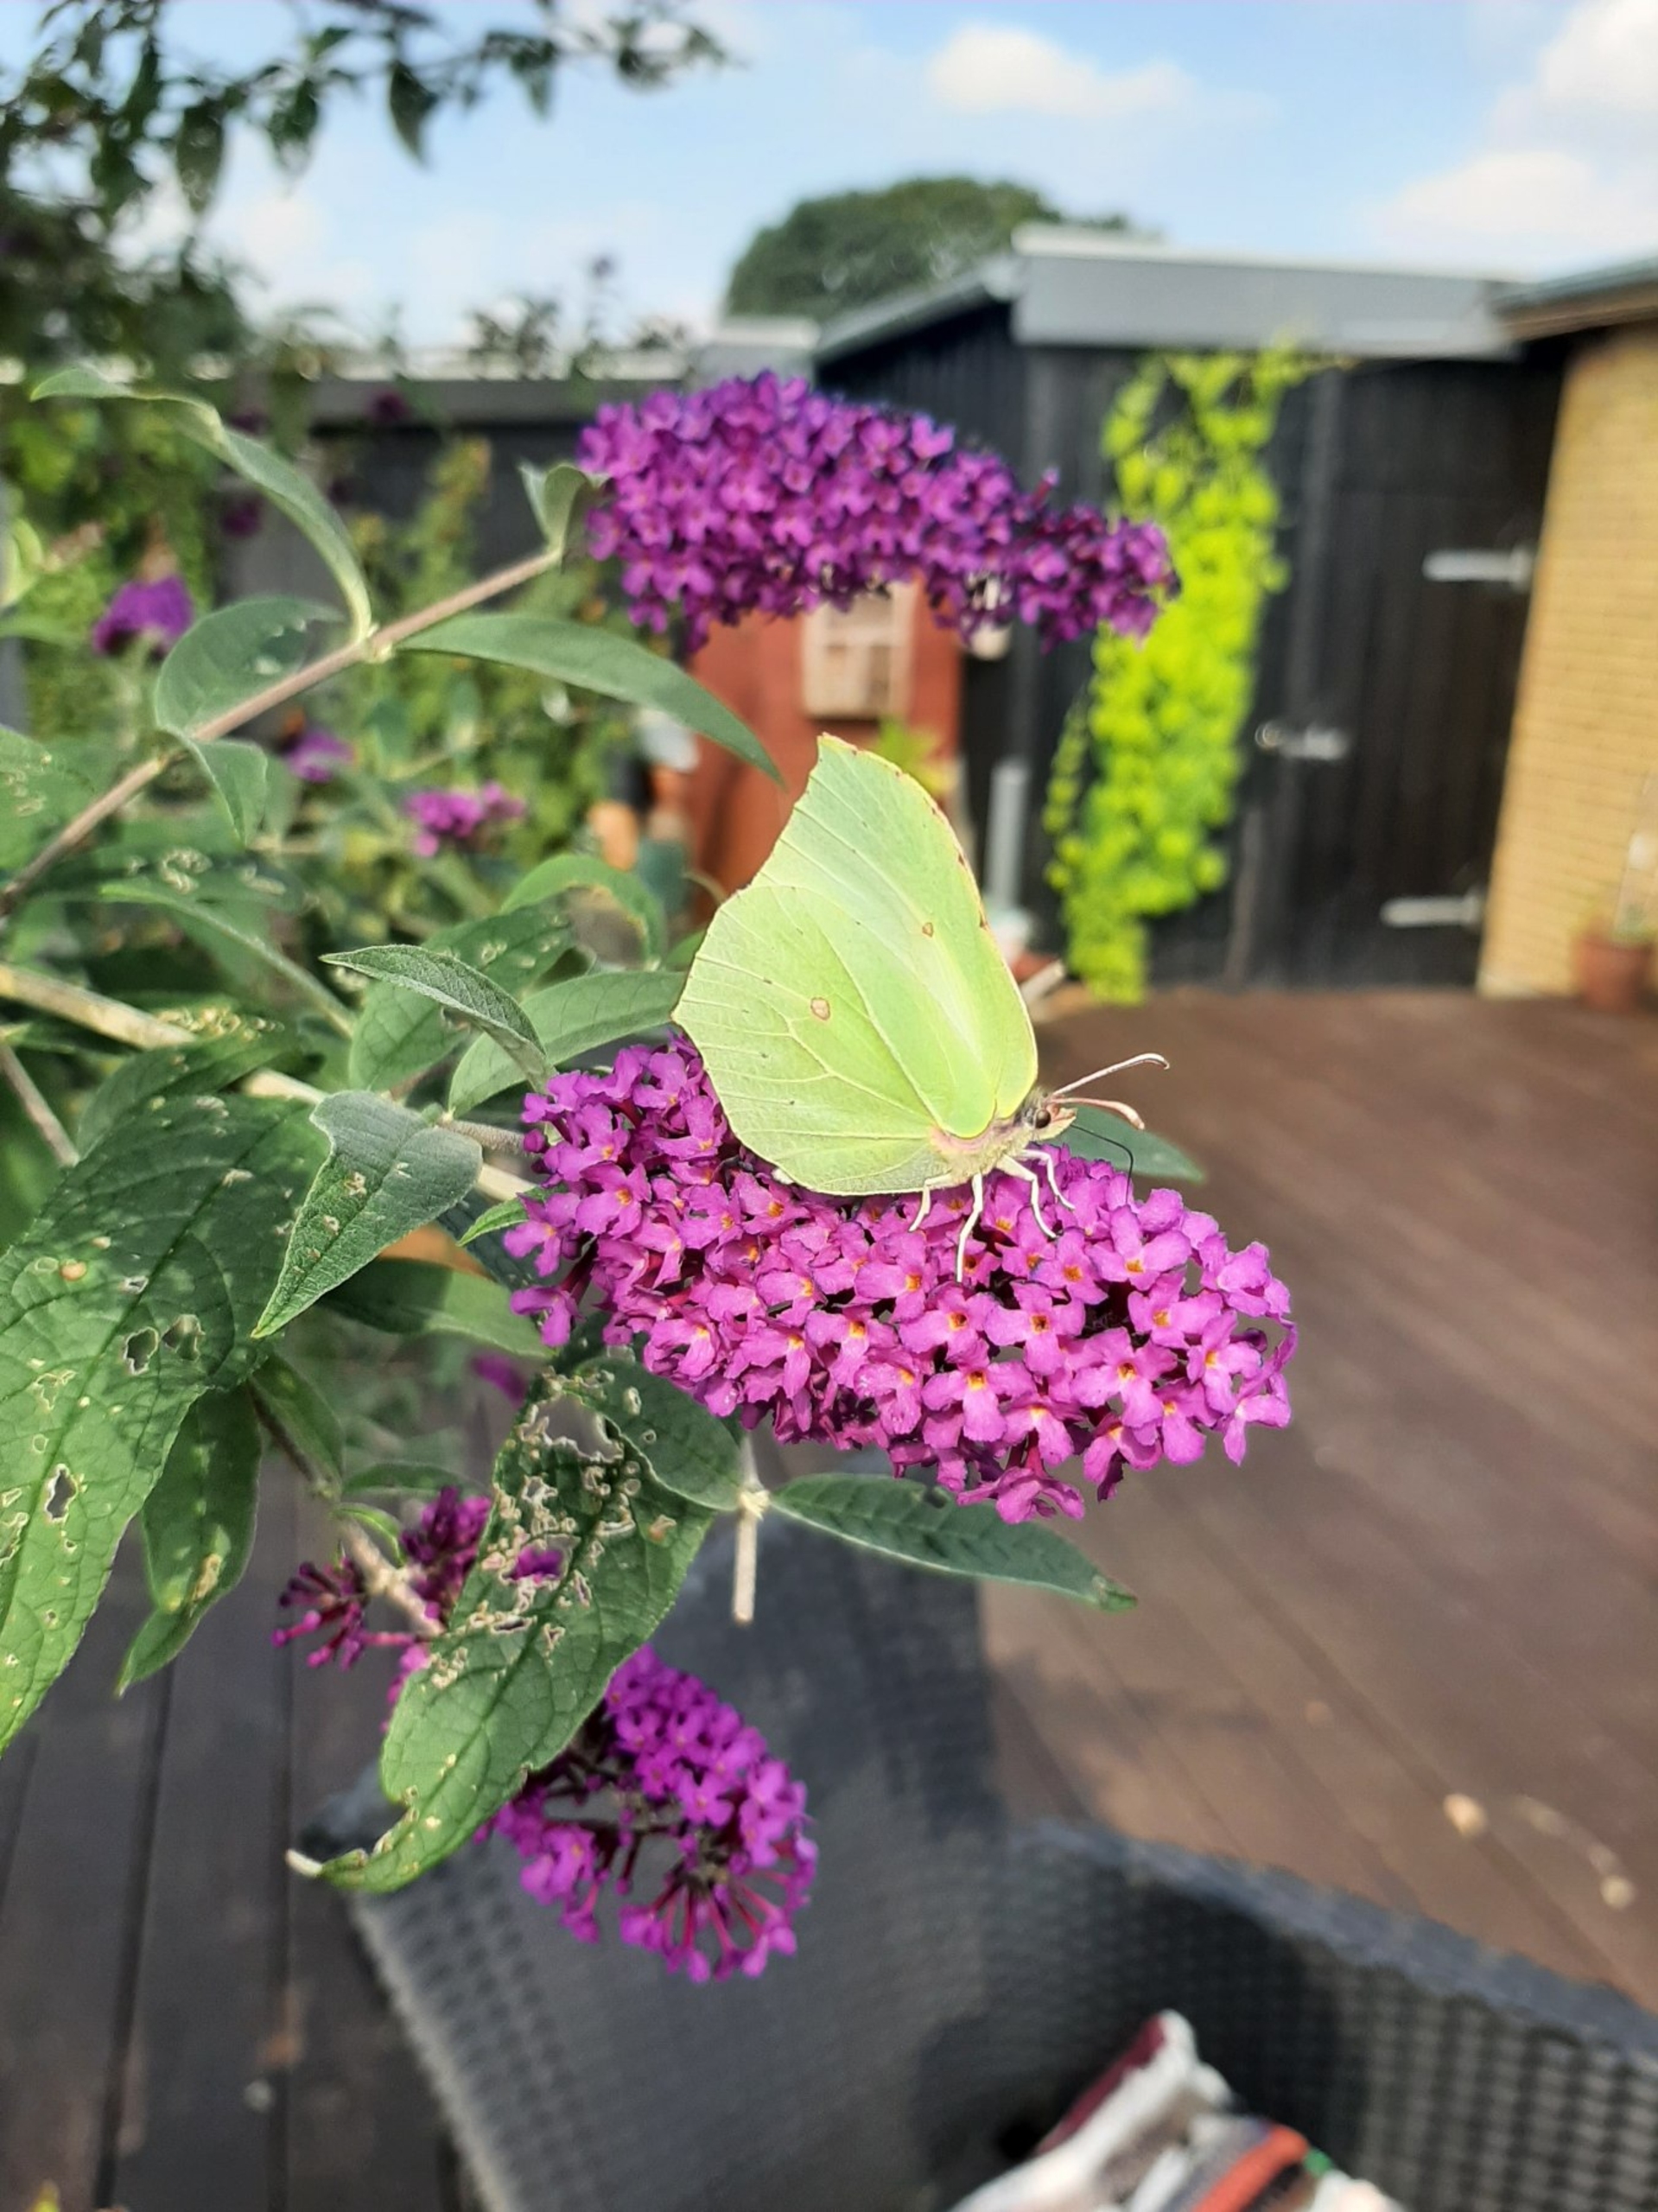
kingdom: Animalia
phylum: Arthropoda
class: Insecta
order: Lepidoptera
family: Pieridae
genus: Gonepteryx
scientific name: Gonepteryx rhamni
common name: Citronsommerfugl
